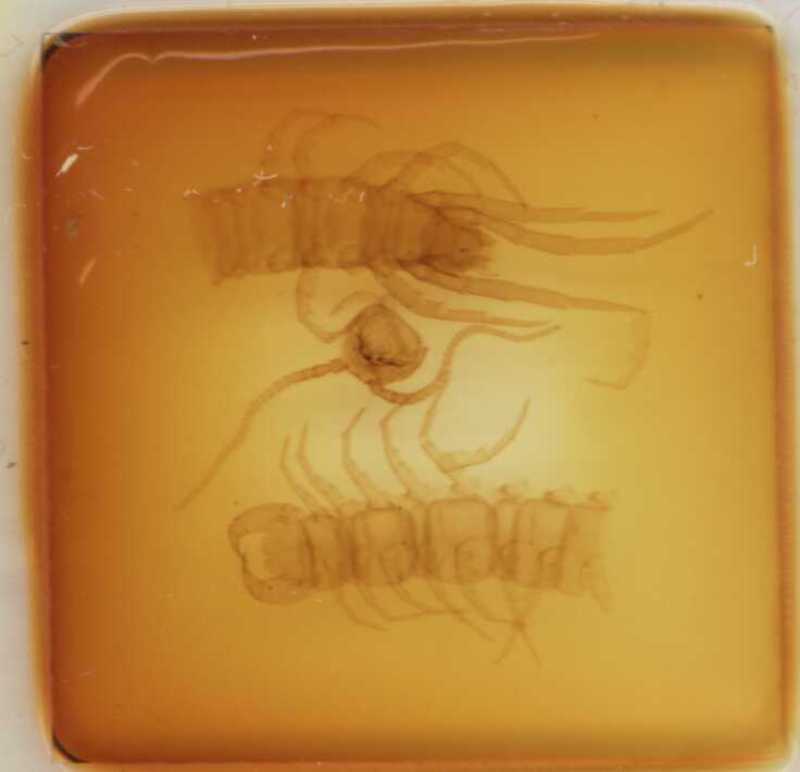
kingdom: Animalia
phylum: Arthropoda
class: Chilopoda
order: Lithobiomorpha
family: Lithobiidae
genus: Lithobius
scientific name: Lithobius erythrocephalus
